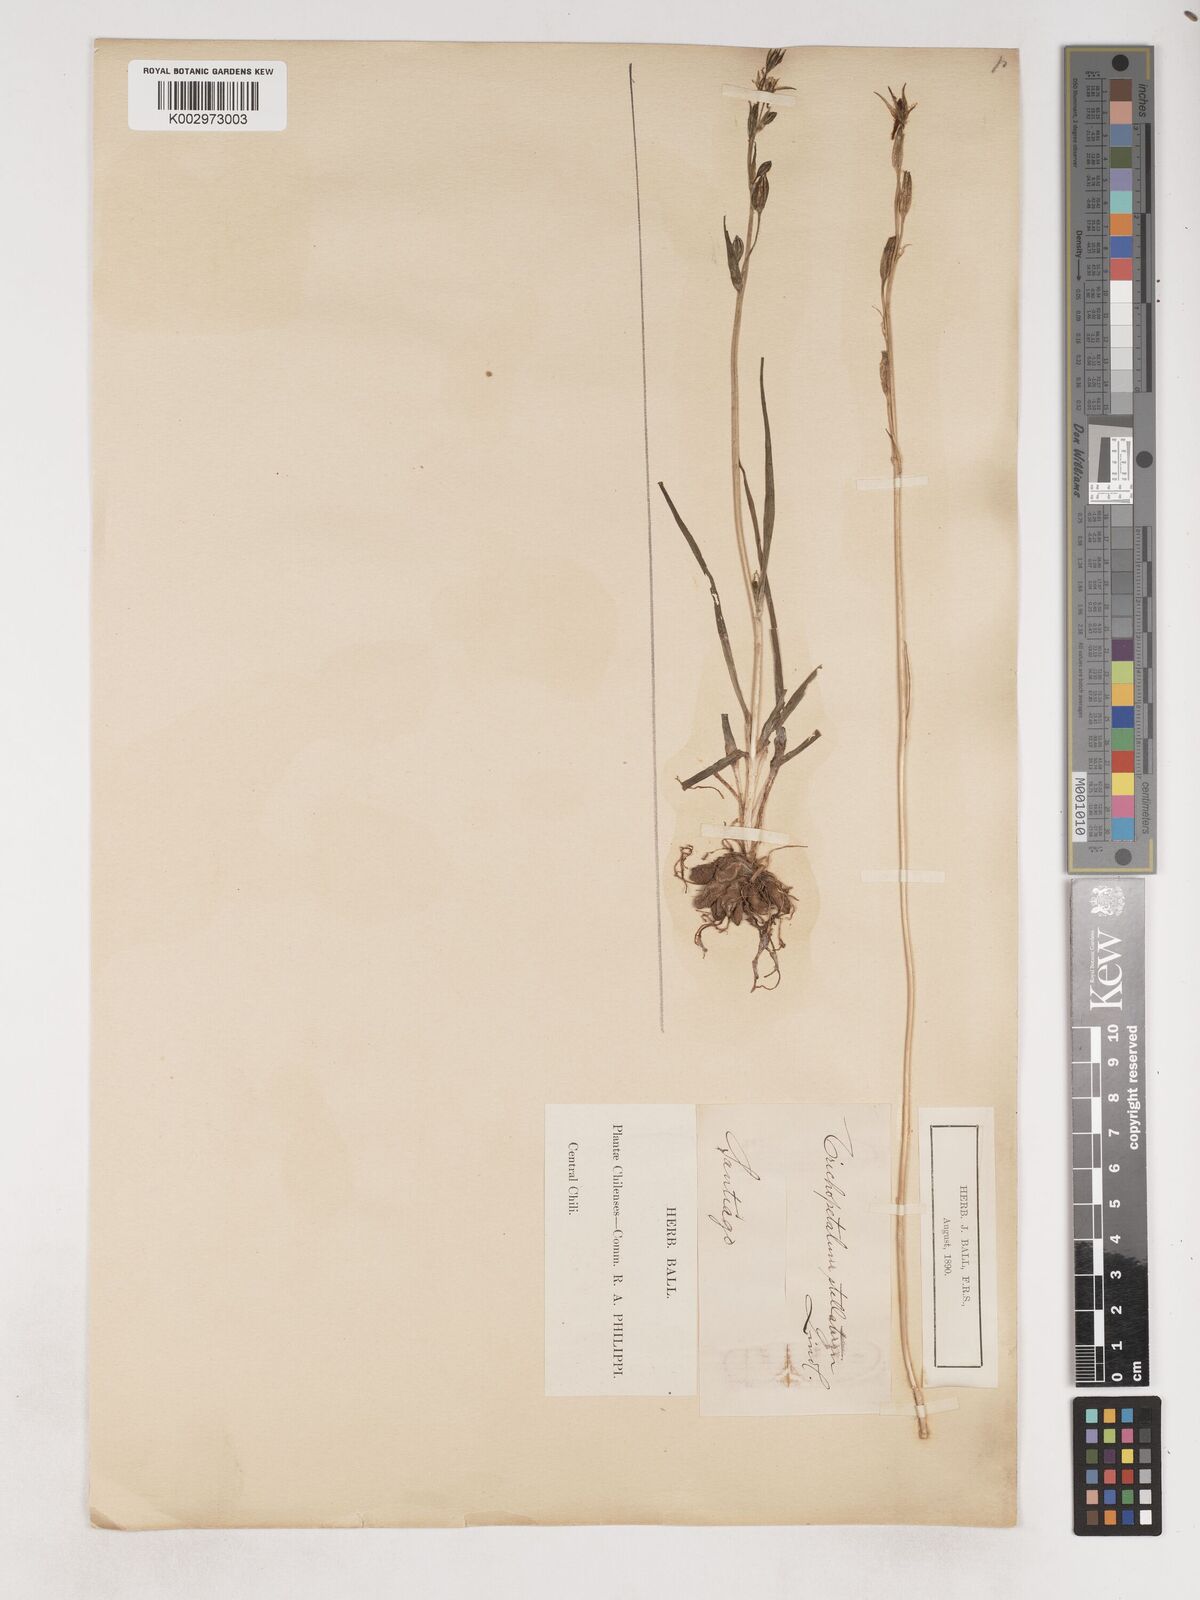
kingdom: Plantae
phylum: Tracheophyta
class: Liliopsida
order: Asparagales
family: Asparagaceae
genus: Trichopetalum
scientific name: Trichopetalum plumosum
